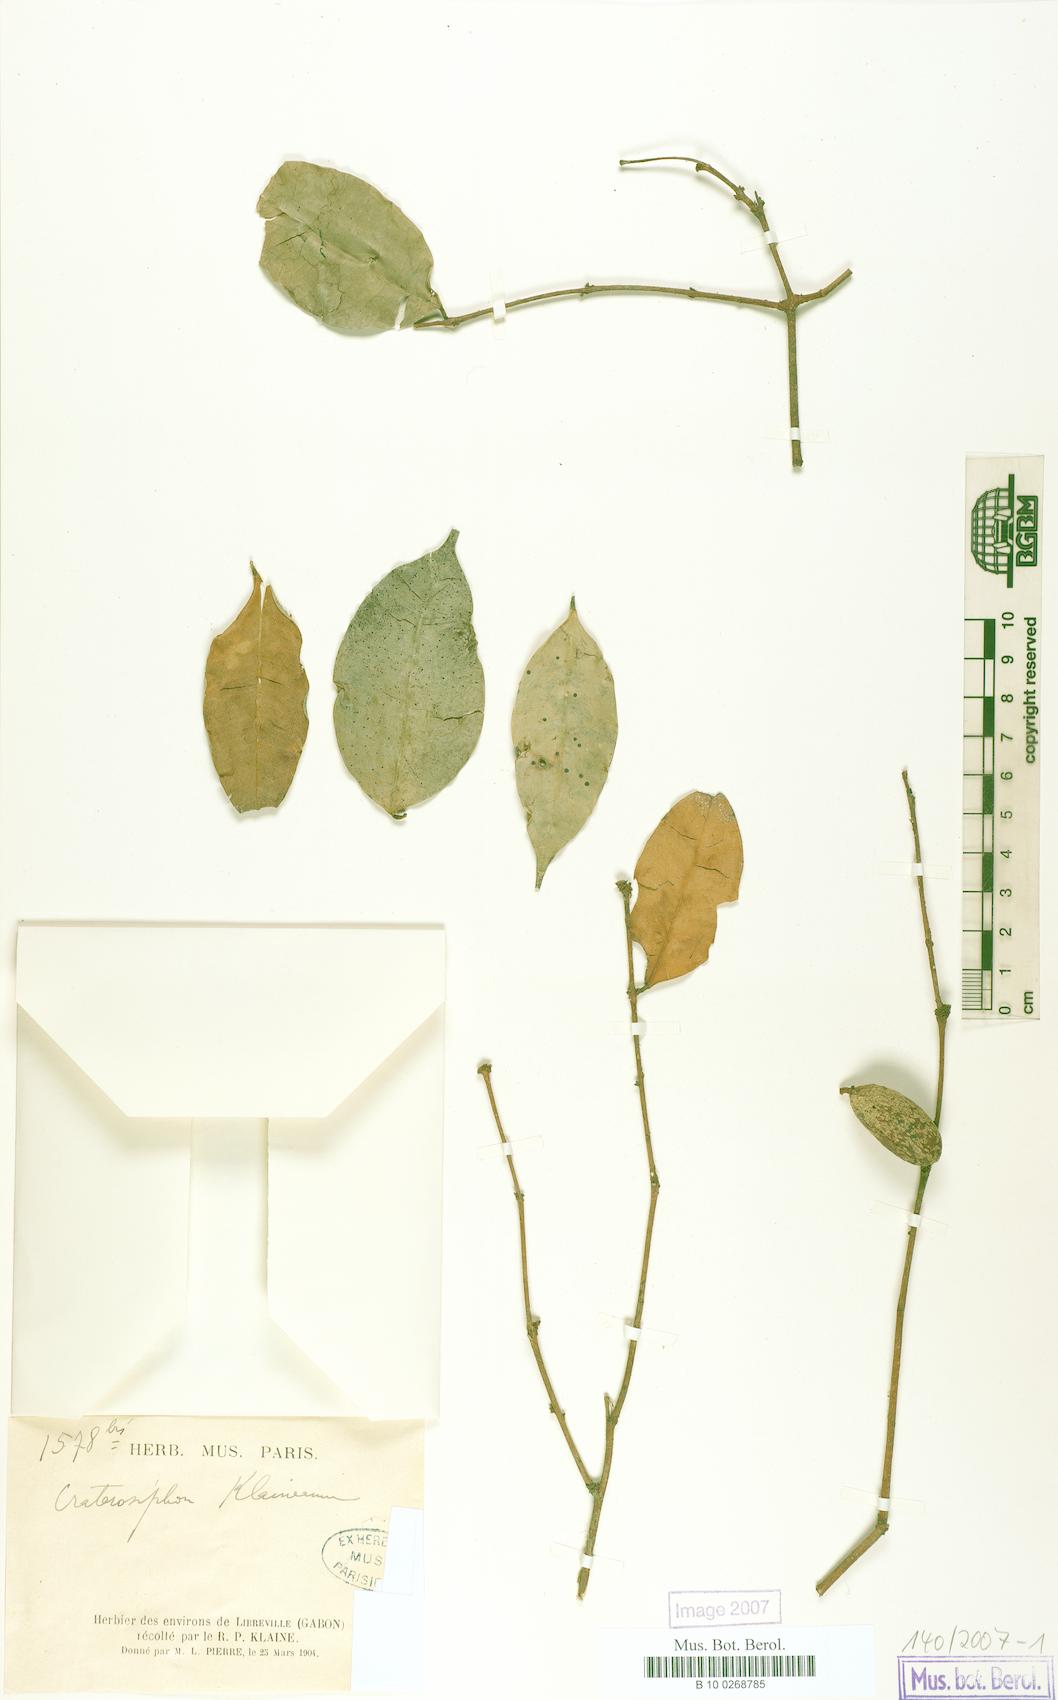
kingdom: Plantae
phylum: Tracheophyta
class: Magnoliopsida
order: Malvales
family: Thymelaeaceae
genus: Craterosiphon
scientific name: Craterosiphon pseudoscandens
